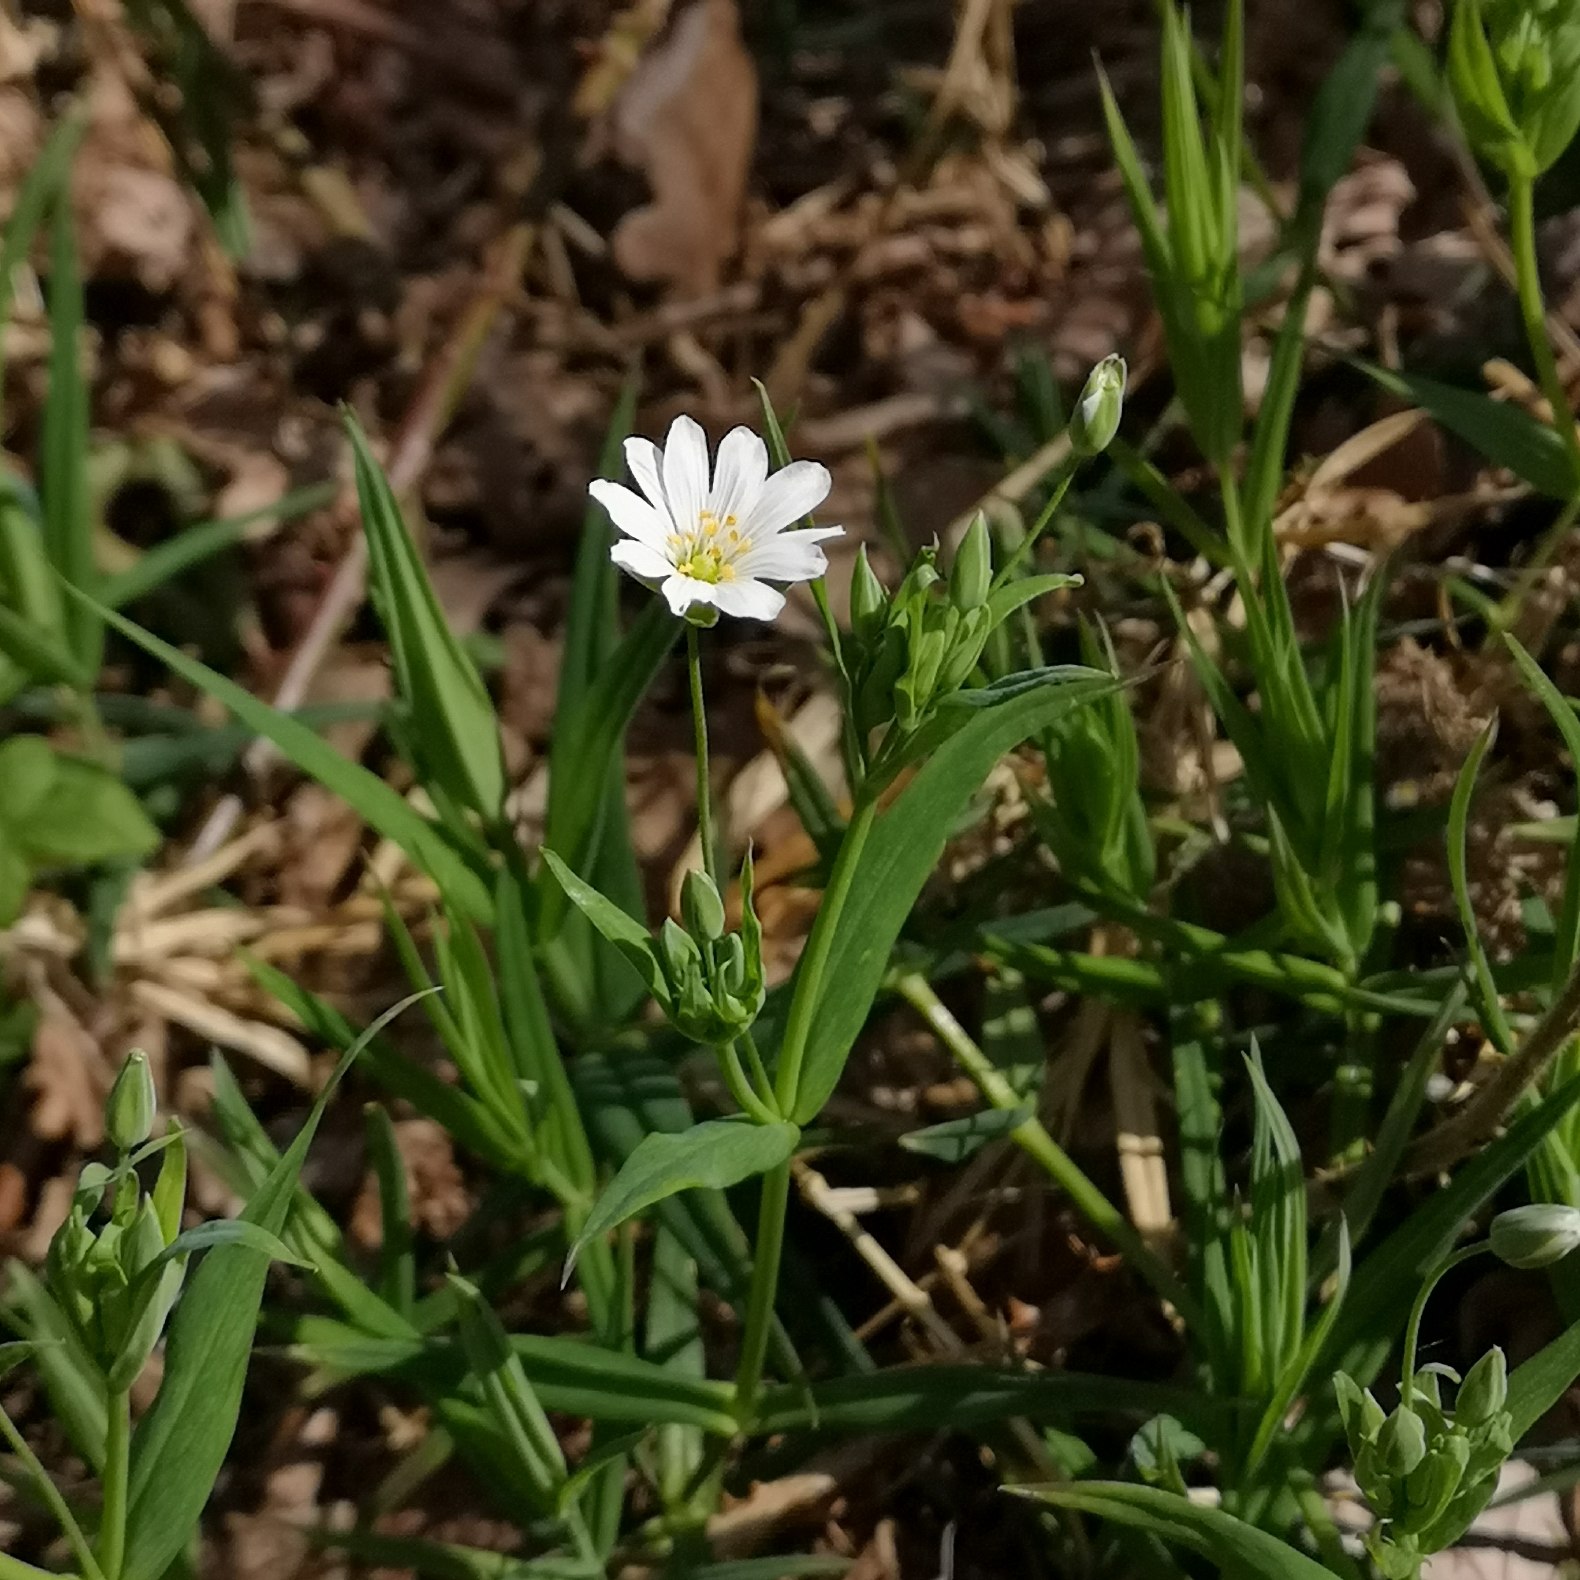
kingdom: Plantae
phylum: Tracheophyta
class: Magnoliopsida
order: Caryophyllales
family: Caryophyllaceae
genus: Rabelera
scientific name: Rabelera holostea
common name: Stor fladstjerne
